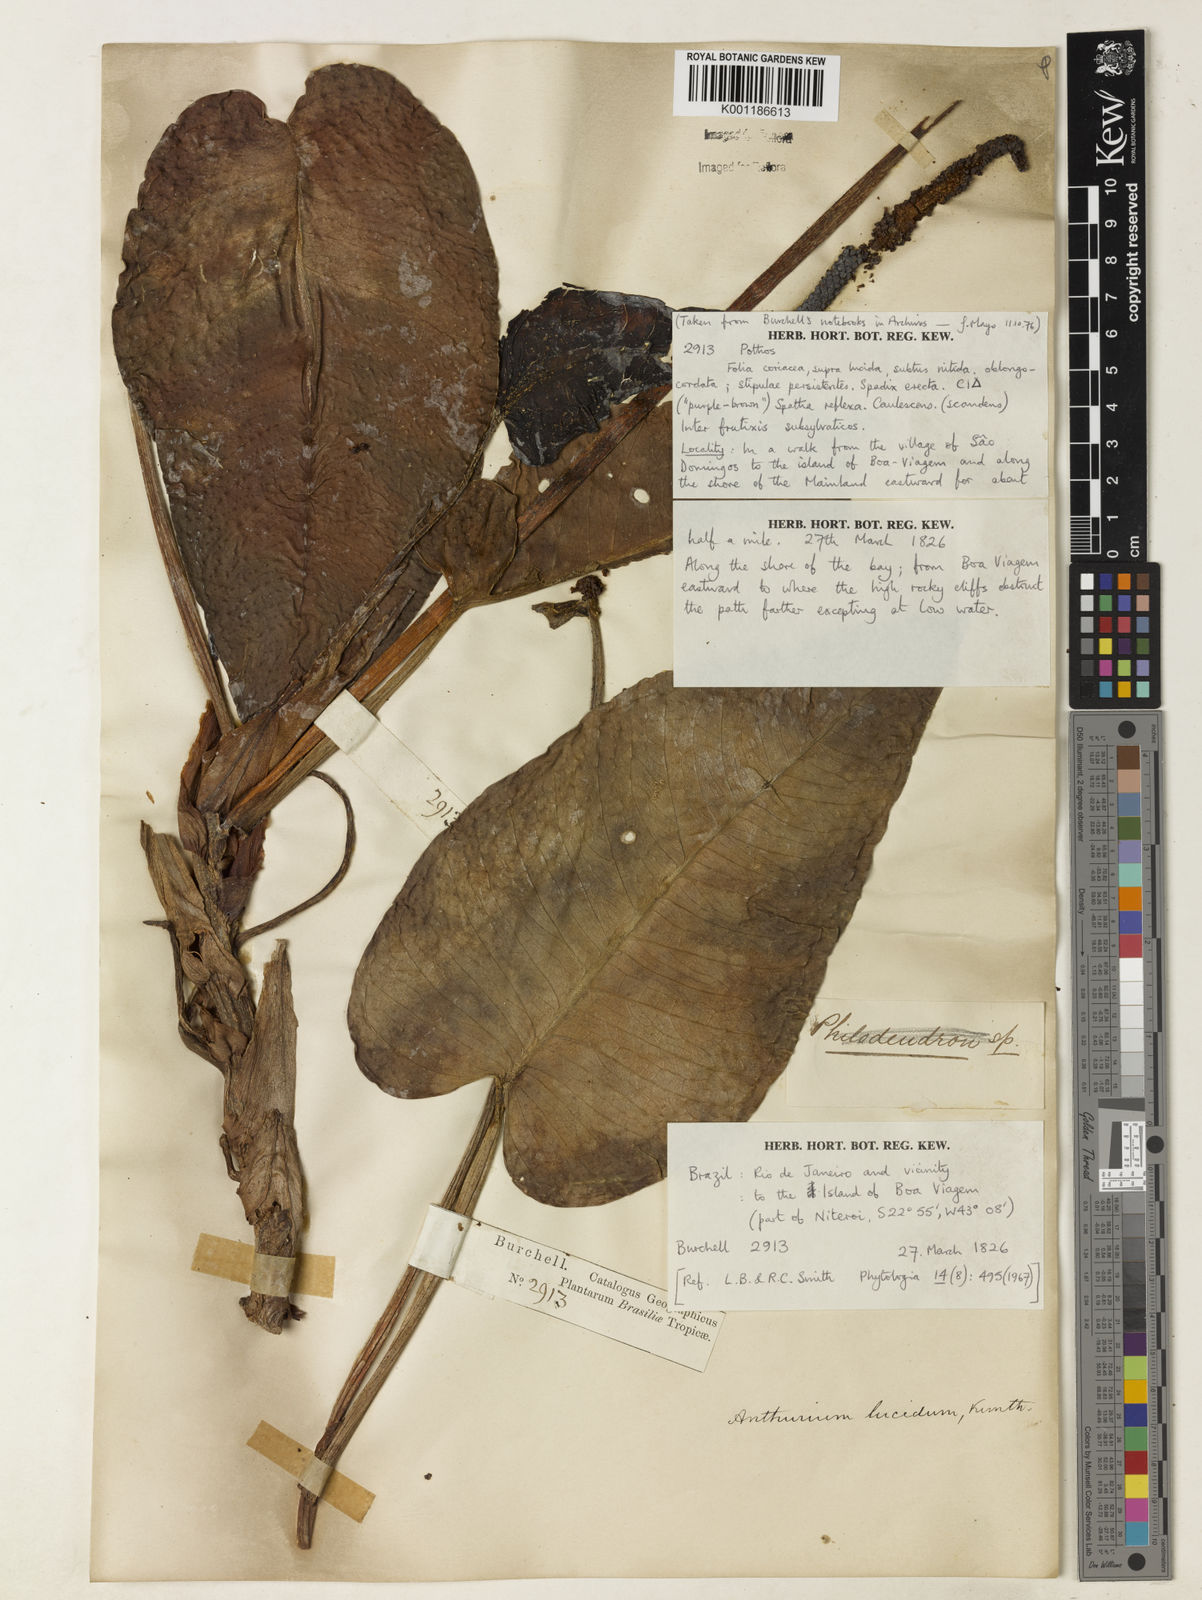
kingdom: Plantae
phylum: Tracheophyta
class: Liliopsida
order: Alismatales
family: Araceae
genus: Anthurium
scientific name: Anthurium lucidum
